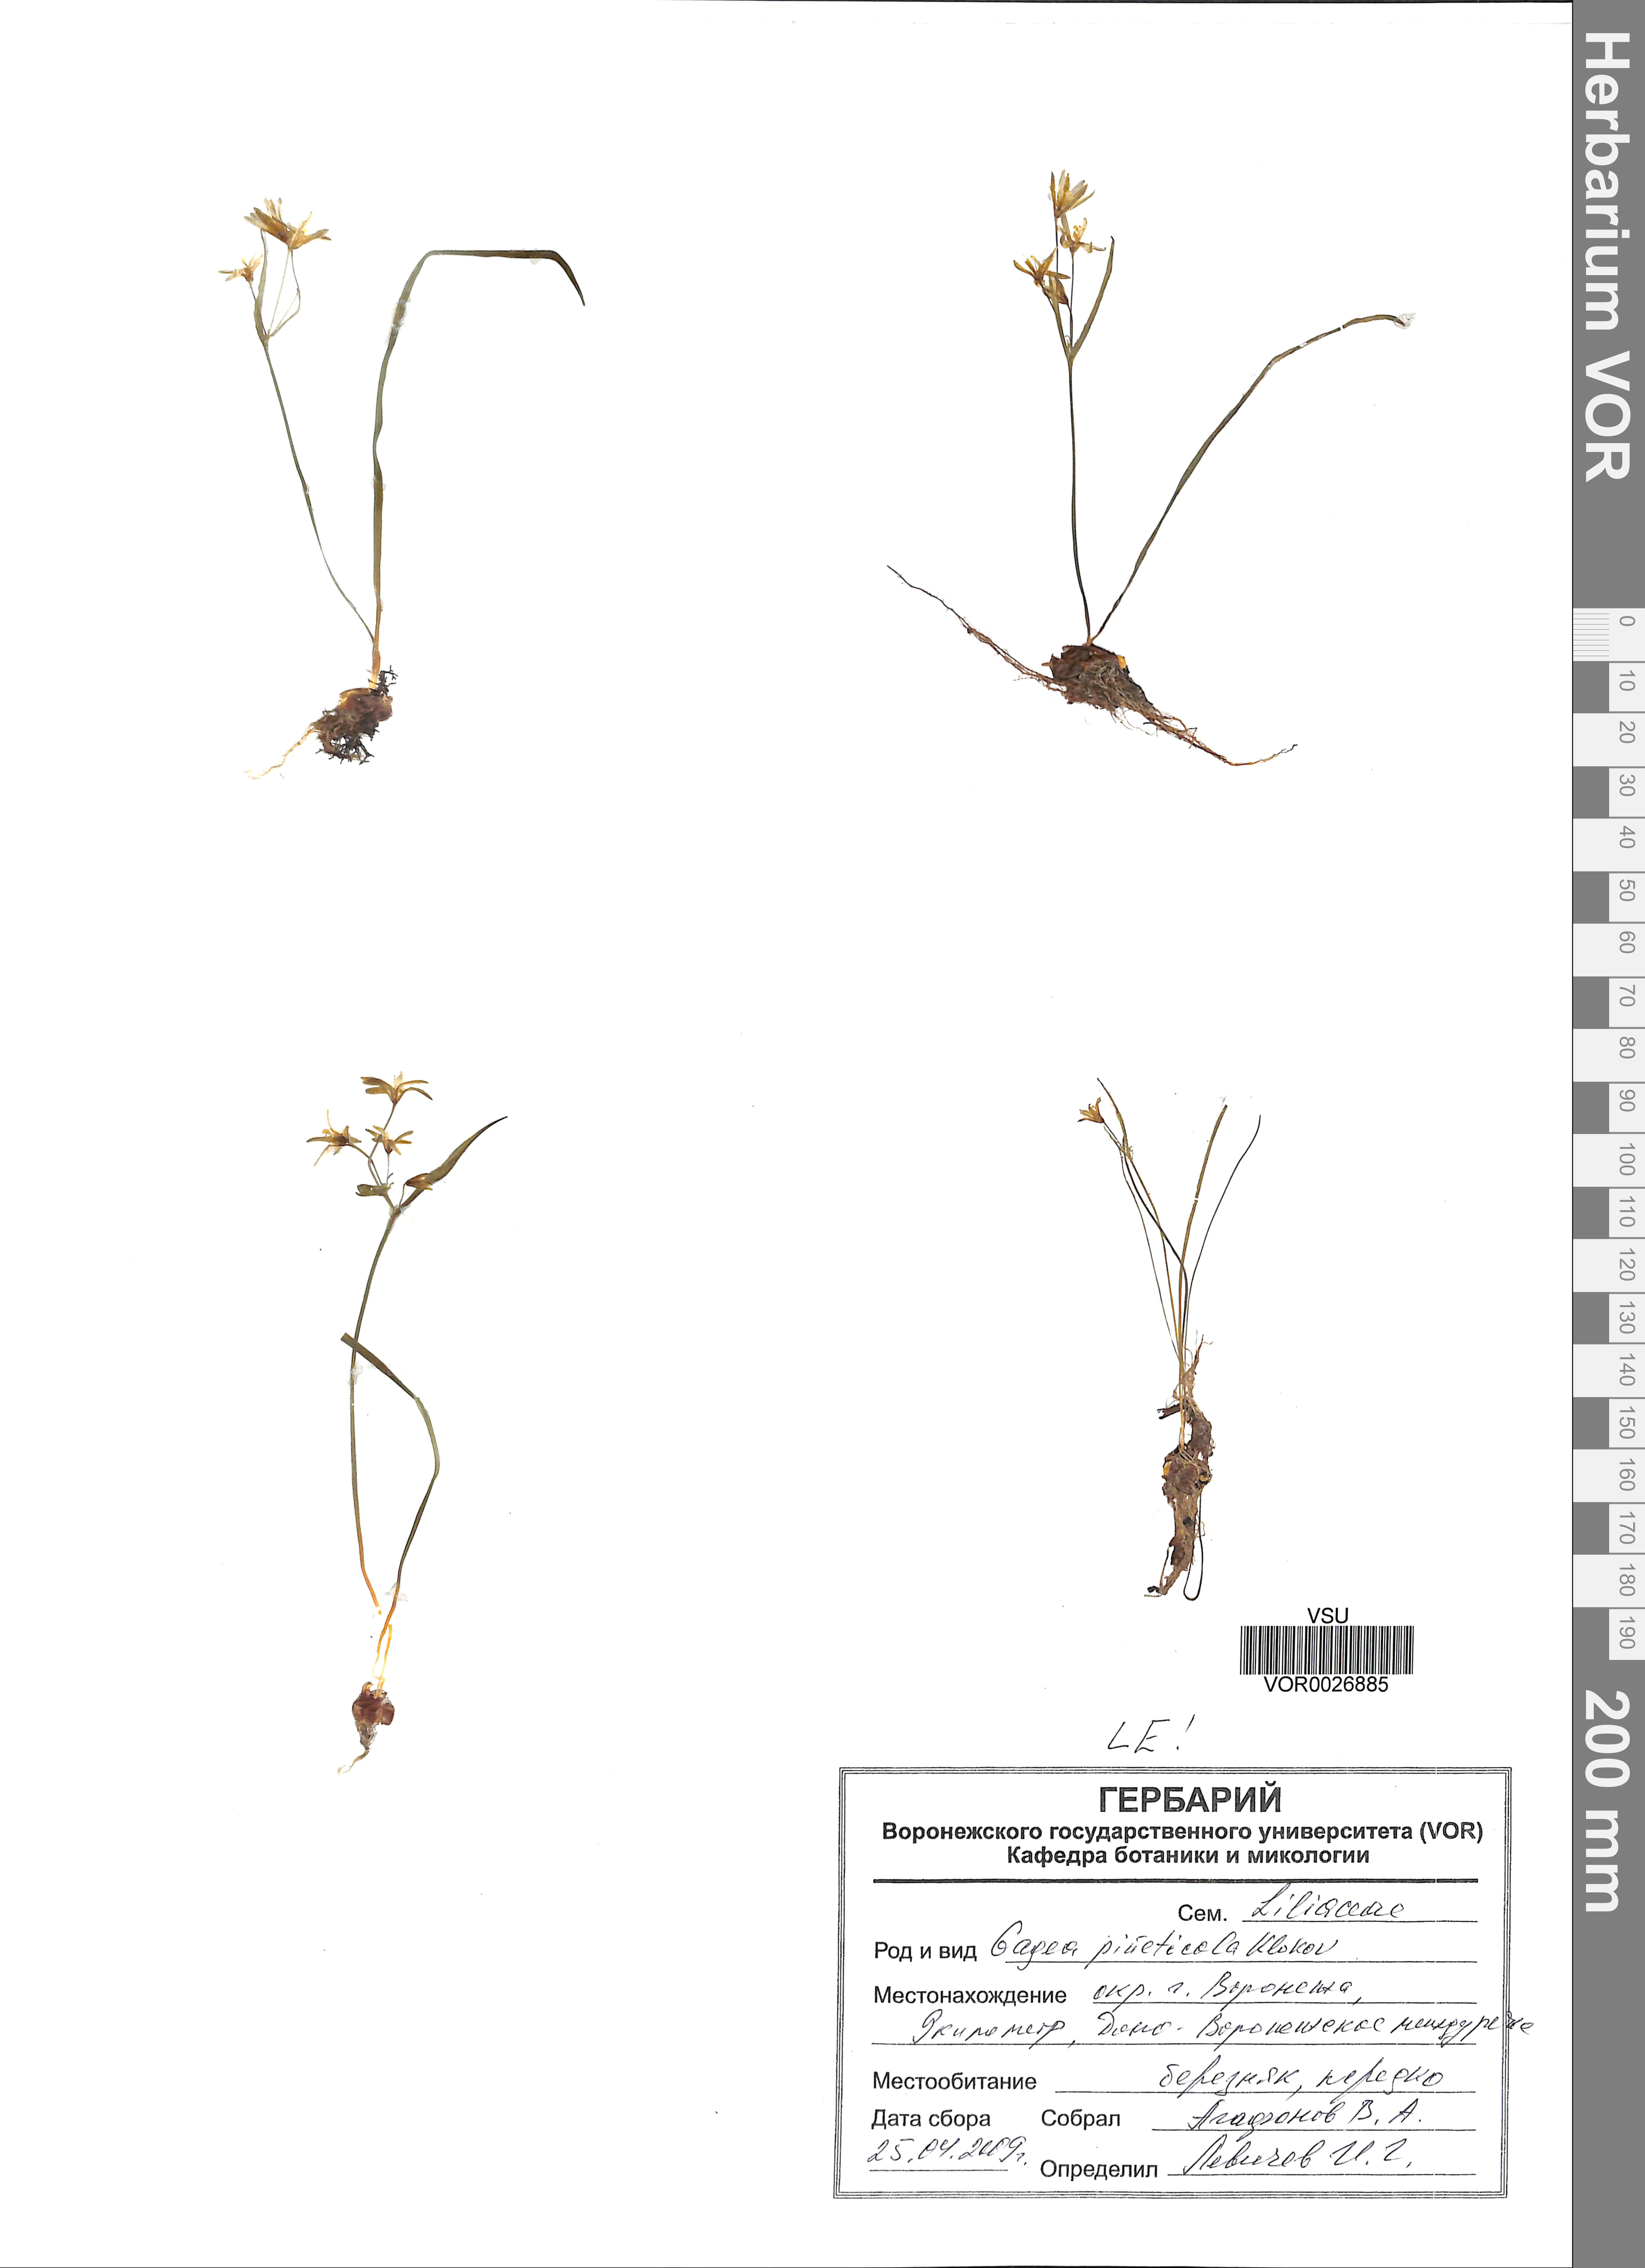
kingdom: Plantae
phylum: Tracheophyta
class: Liliopsida
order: Liliales
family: Liliaceae
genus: Gagea
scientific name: Gagea pusilla
